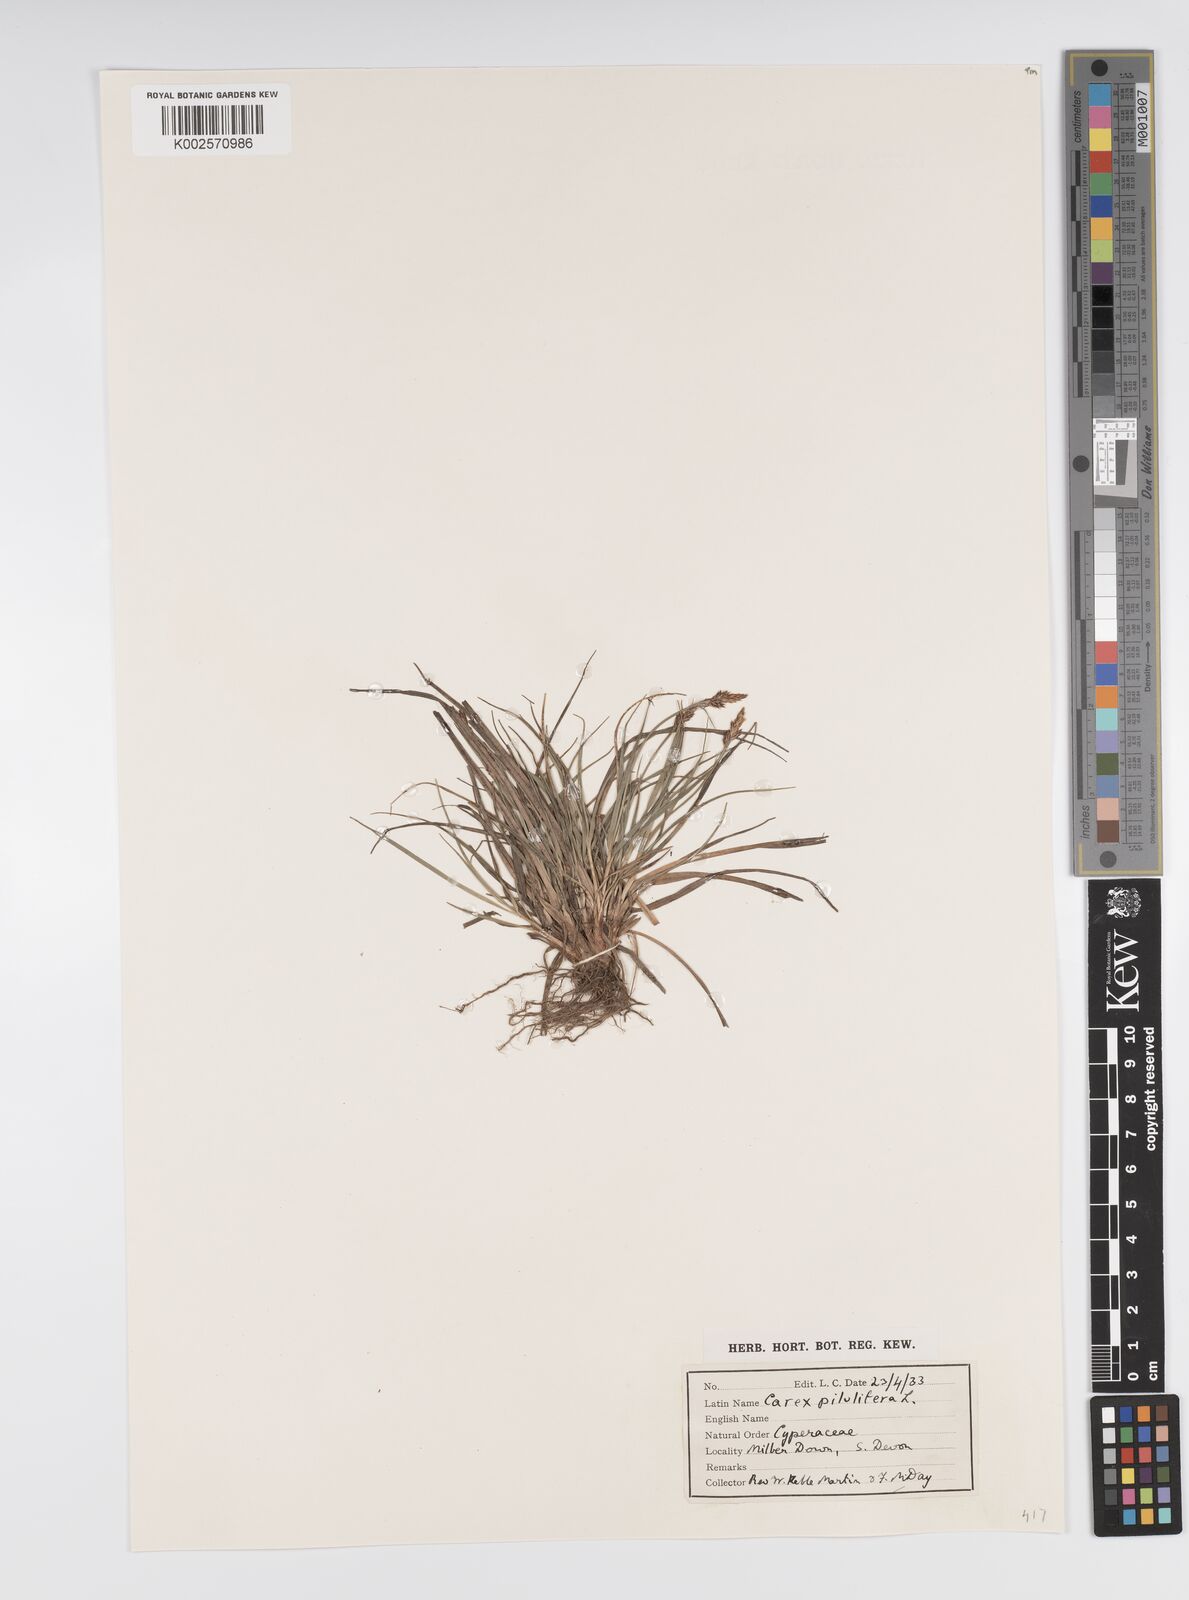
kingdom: Plantae
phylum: Tracheophyta
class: Liliopsida
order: Poales
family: Cyperaceae
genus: Carex
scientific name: Carex praecox
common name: Early sedge
